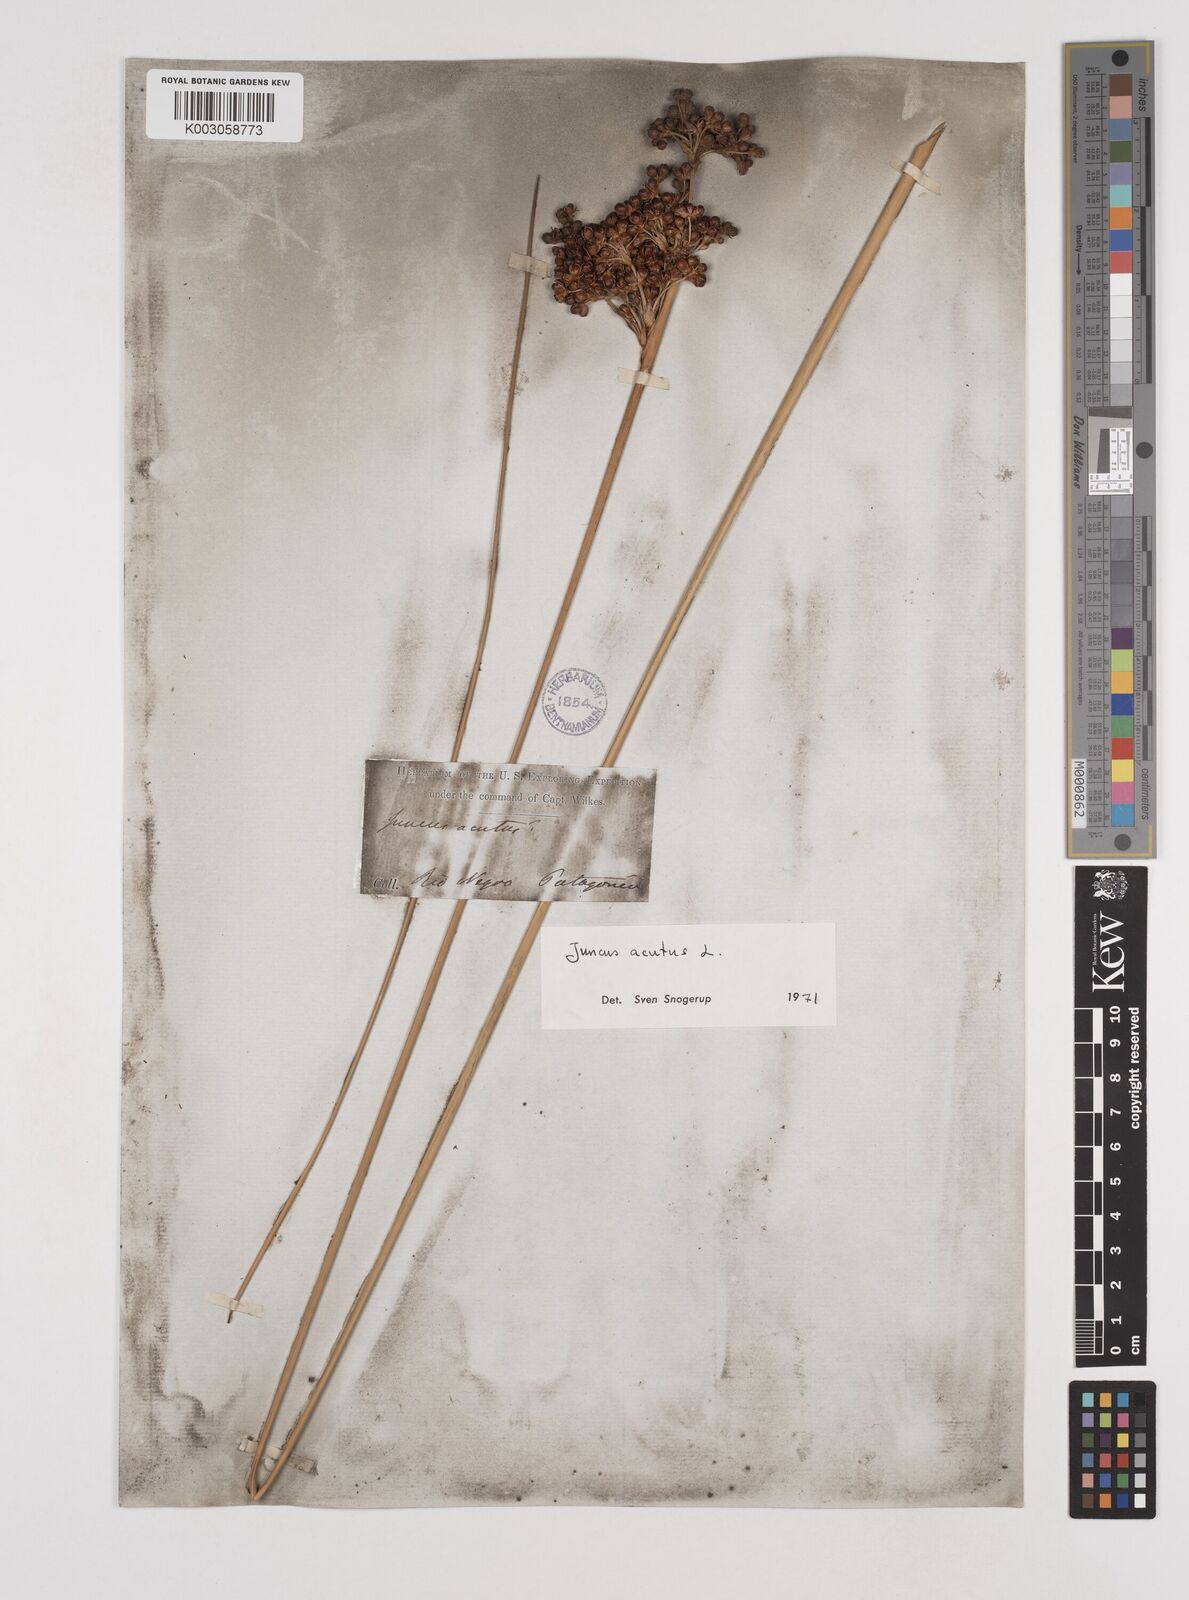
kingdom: Plantae
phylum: Tracheophyta
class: Liliopsida
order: Poales
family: Juncaceae
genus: Juncus
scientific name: Juncus acutus
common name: Sharp rush
